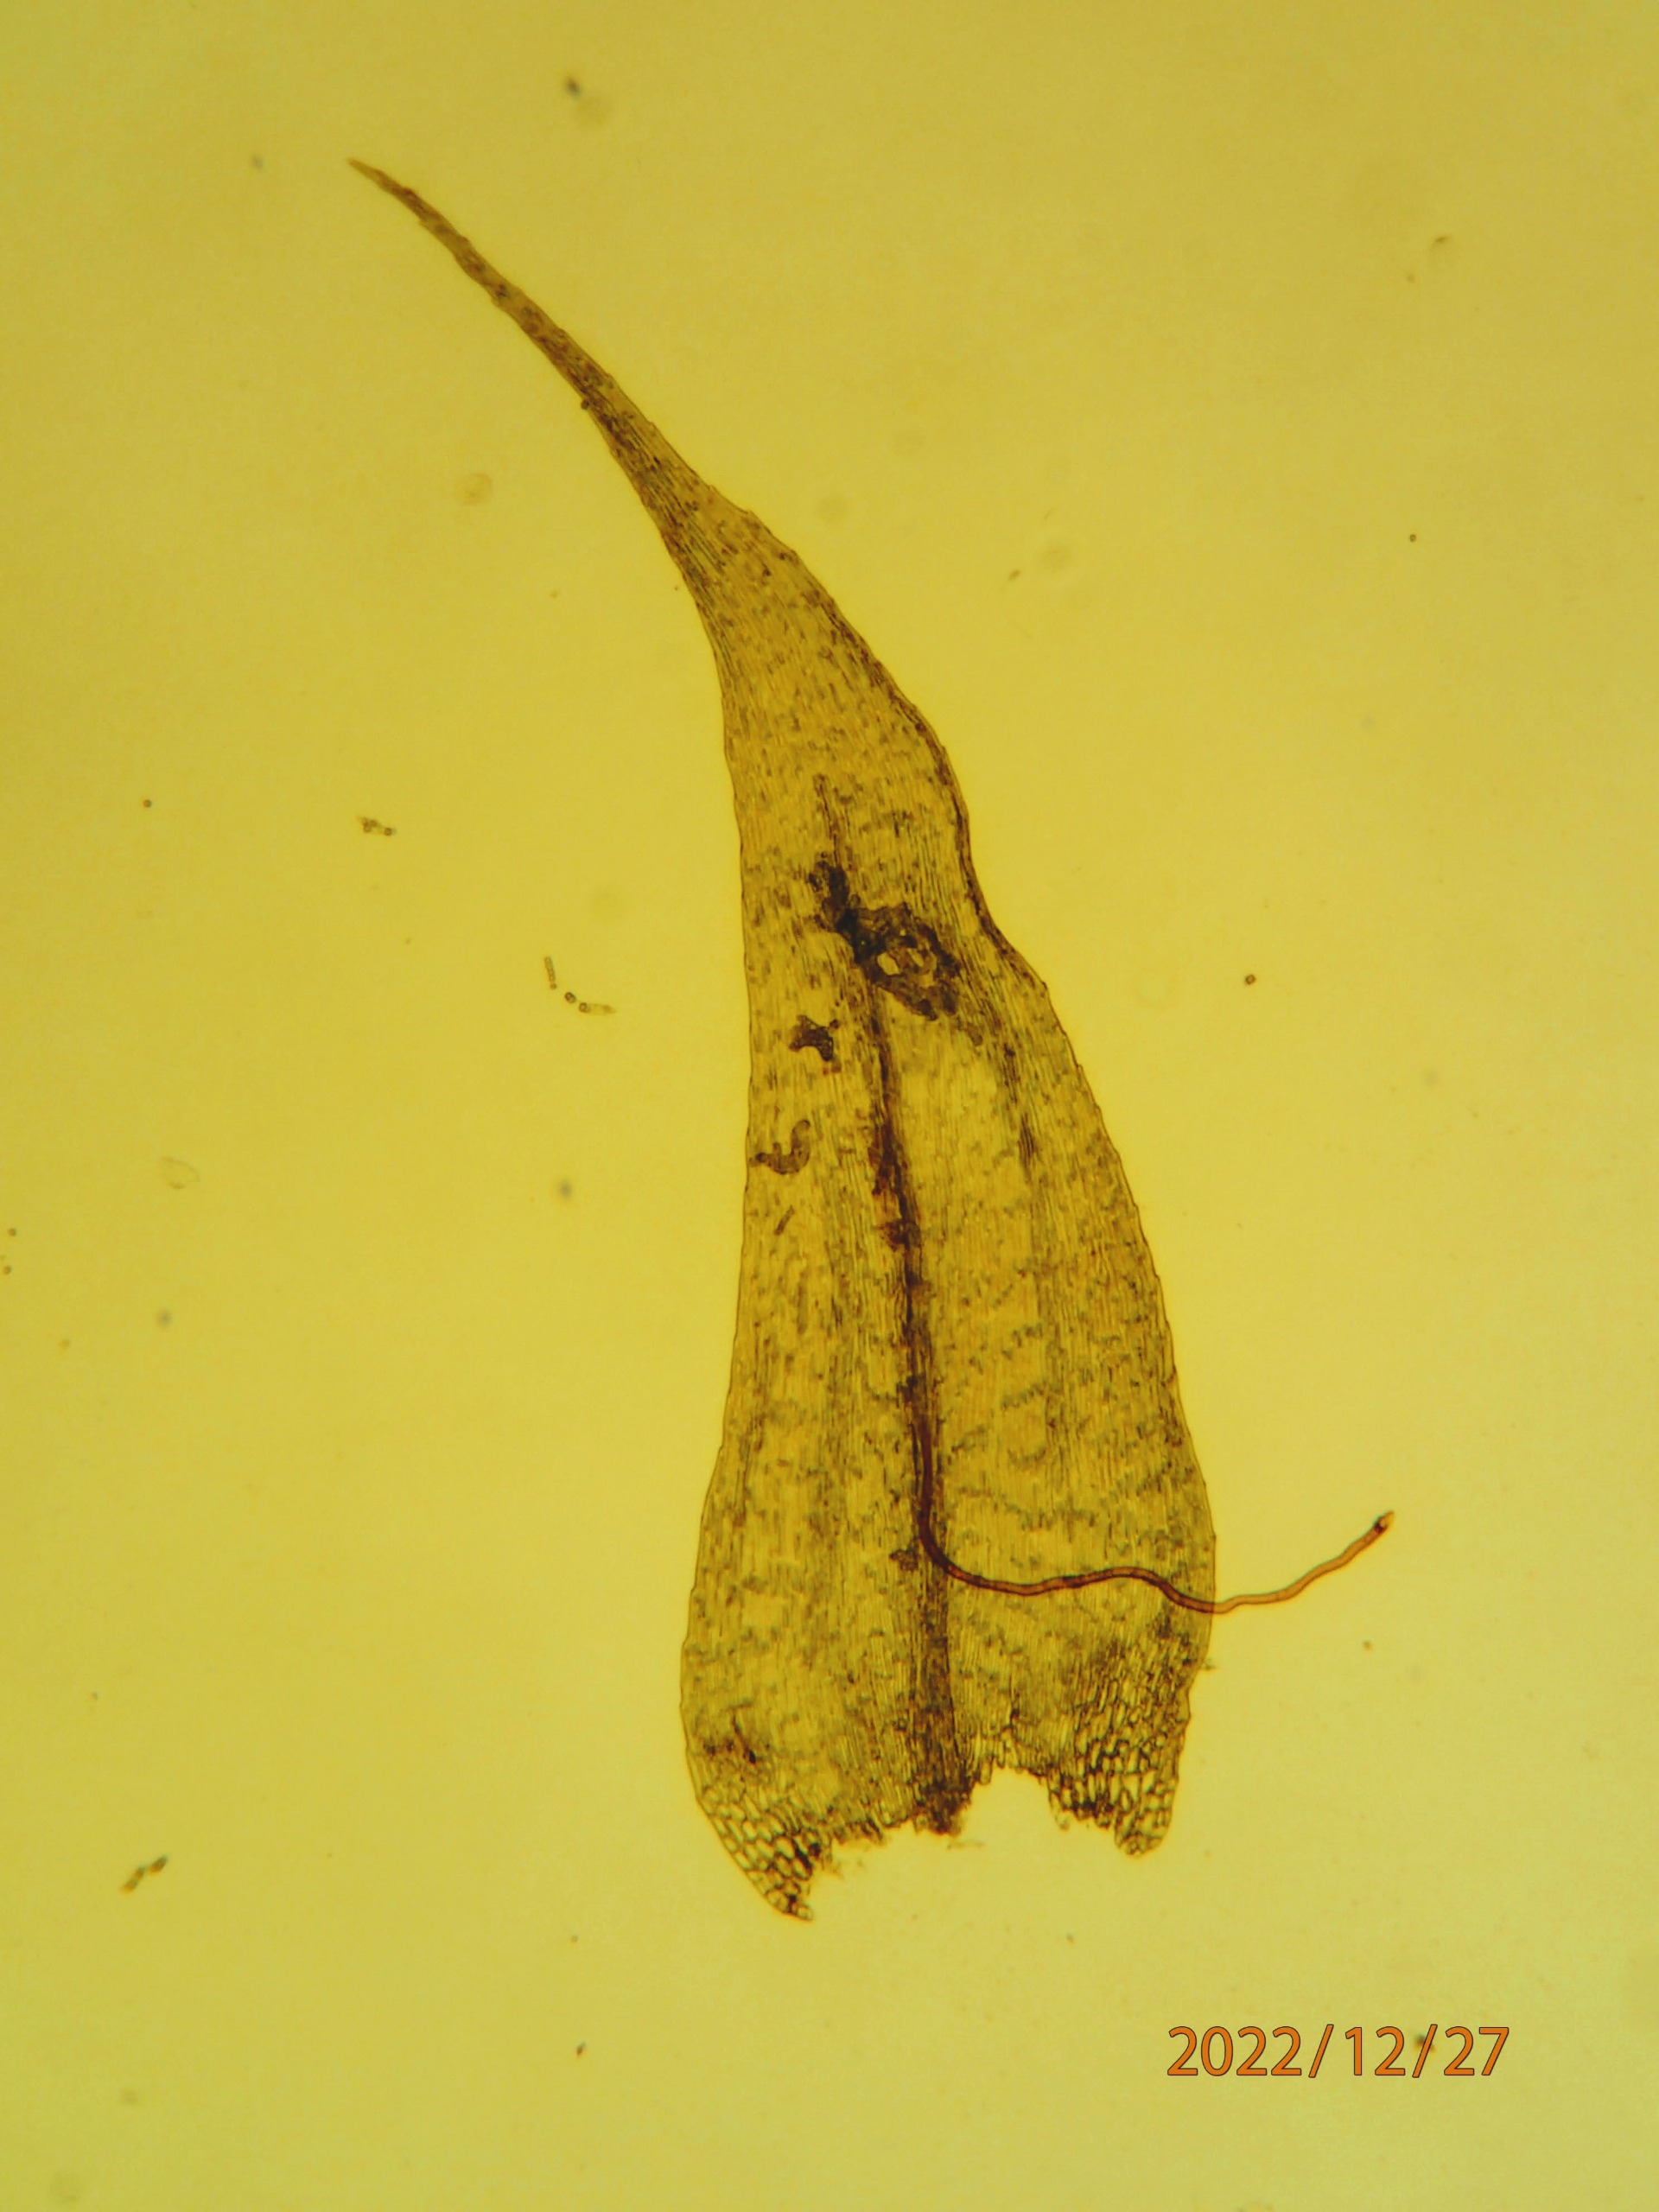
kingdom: Plantae
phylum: Bryophyta
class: Bryopsida
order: Hypnales
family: Brachytheciaceae
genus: Brachytheciastrum
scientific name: Brachytheciastrum velutinum
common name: Fløjls-kortkapsel
